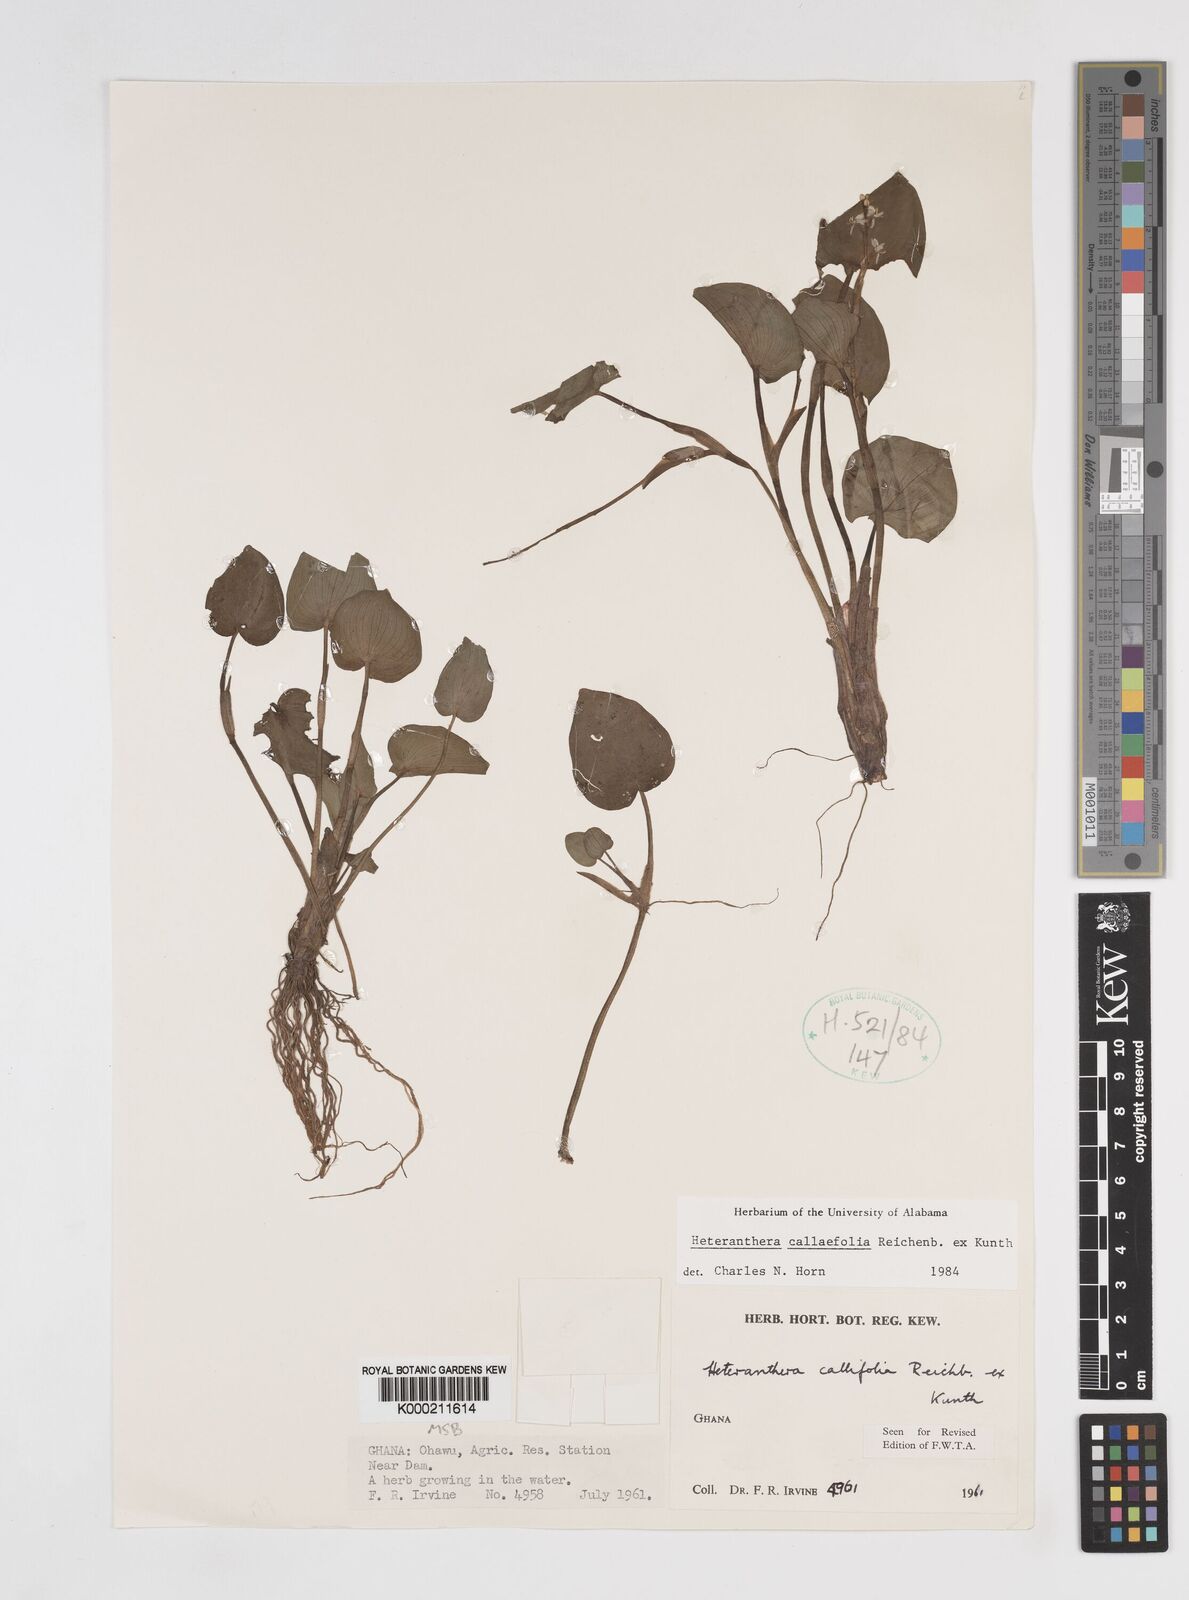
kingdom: Plantae
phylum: Tracheophyta
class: Liliopsida
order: Commelinales
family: Pontederiaceae
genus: Heteranthera
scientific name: Heteranthera callifolia
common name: Mud plantain
